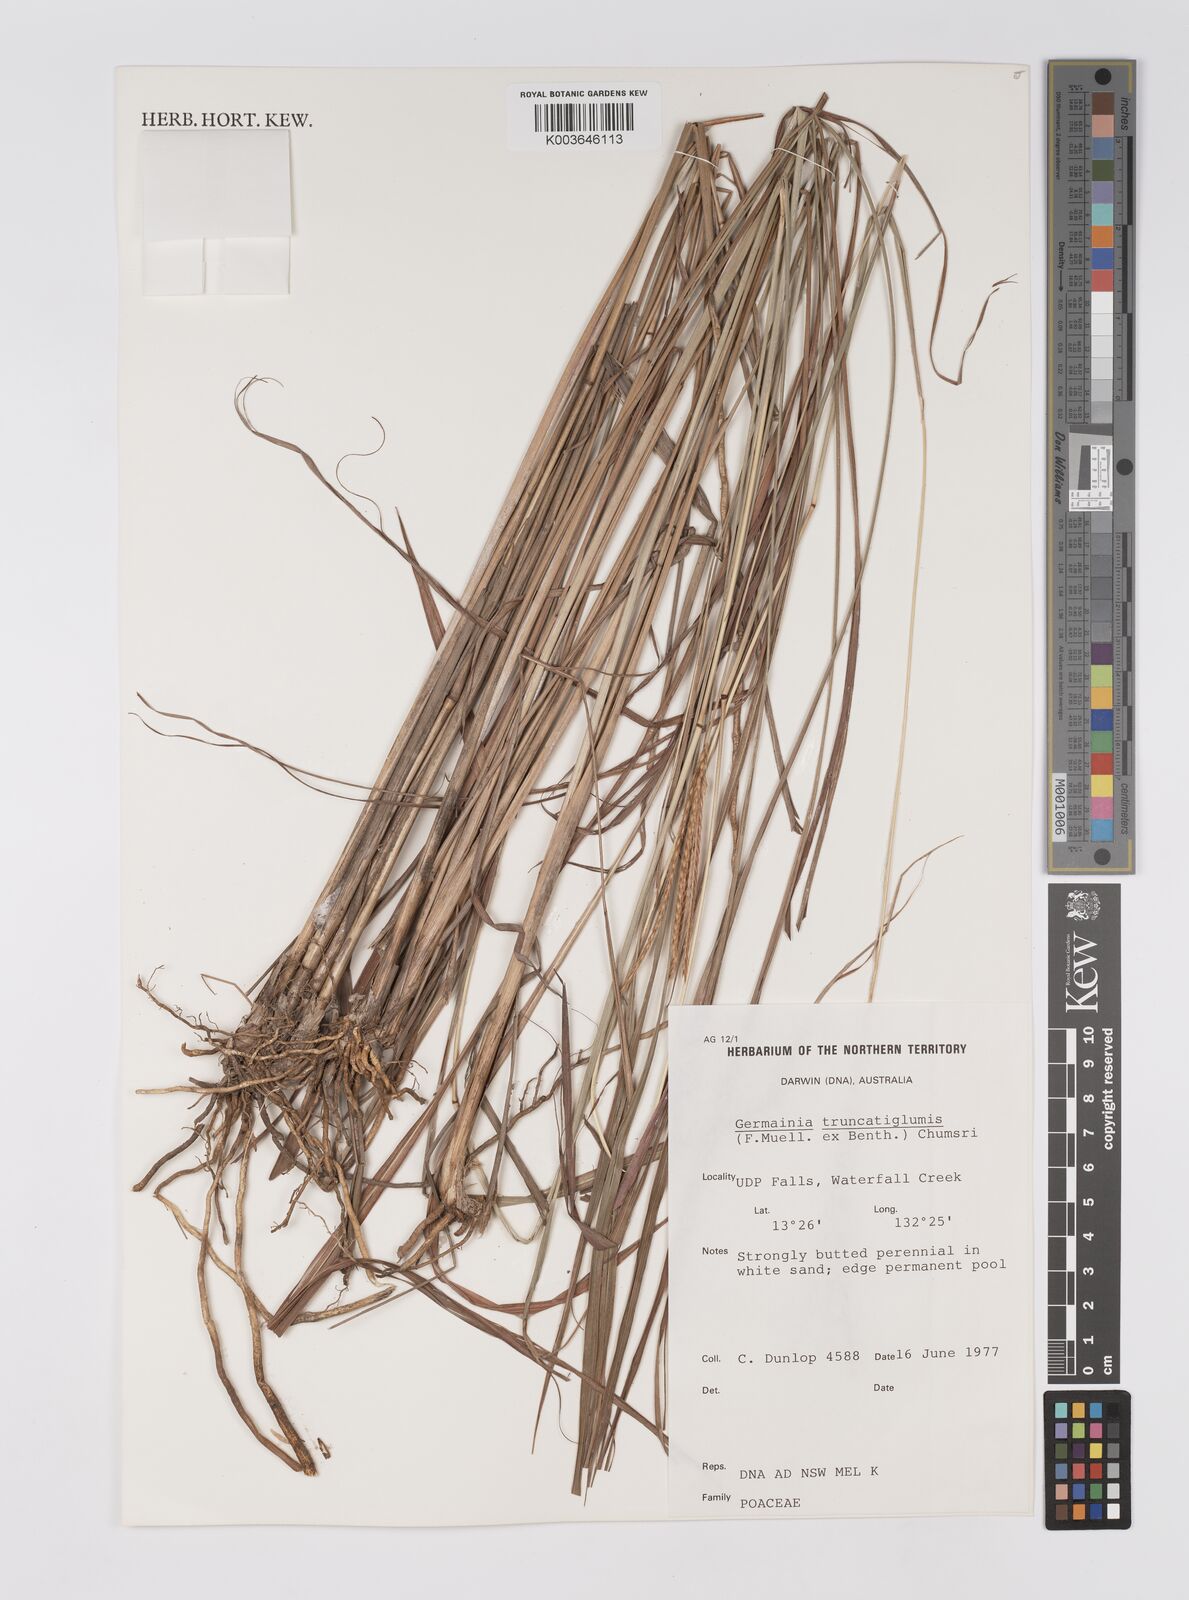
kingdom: Plantae
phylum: Tracheophyta
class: Liliopsida
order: Poales
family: Poaceae
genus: Germainia
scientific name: Germainia truncatiglumis
